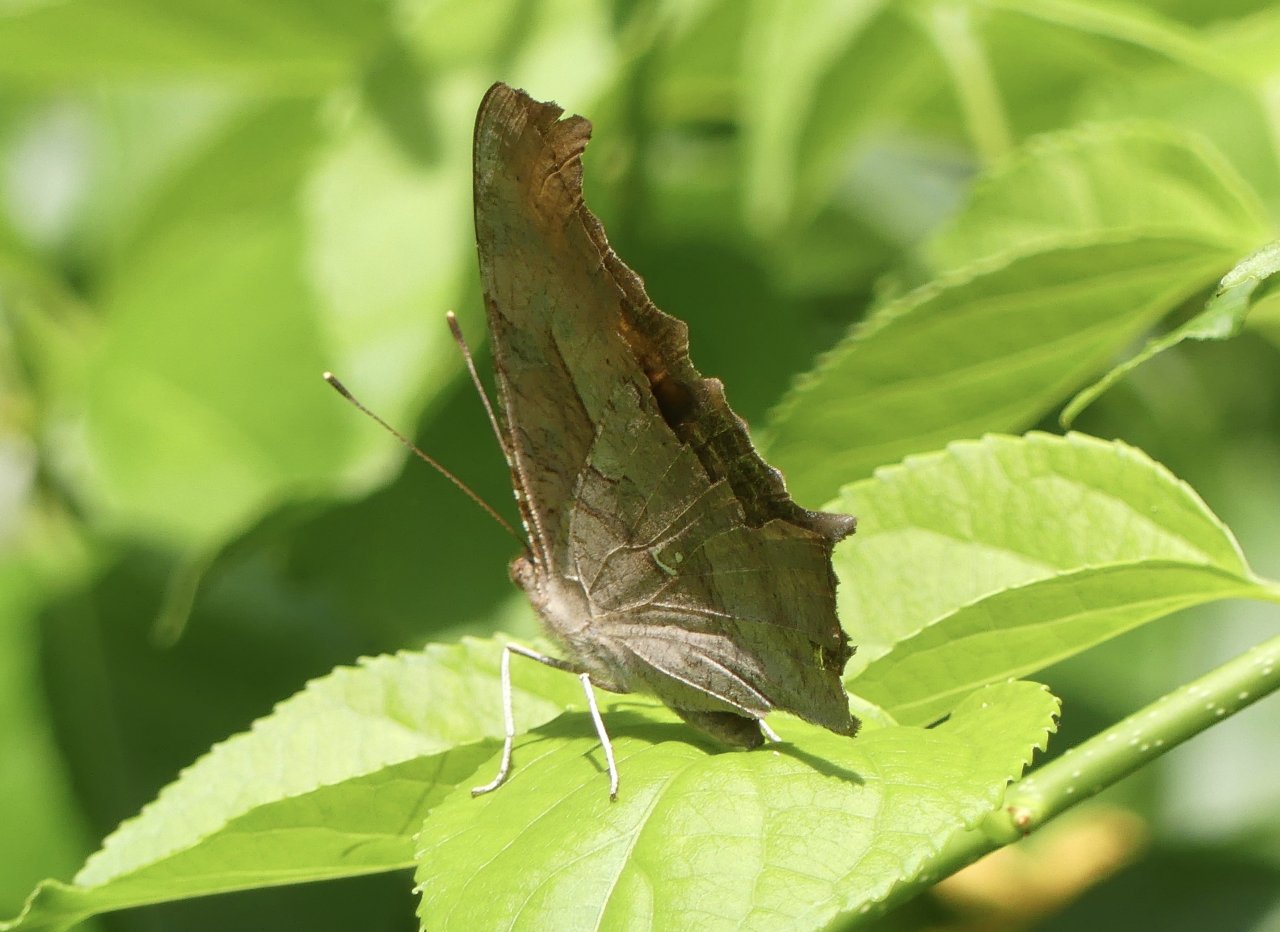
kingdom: Animalia
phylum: Arthropoda
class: Insecta
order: Lepidoptera
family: Nymphalidae
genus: Polygonia
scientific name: Polygonia interrogationis
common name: Question Mark
